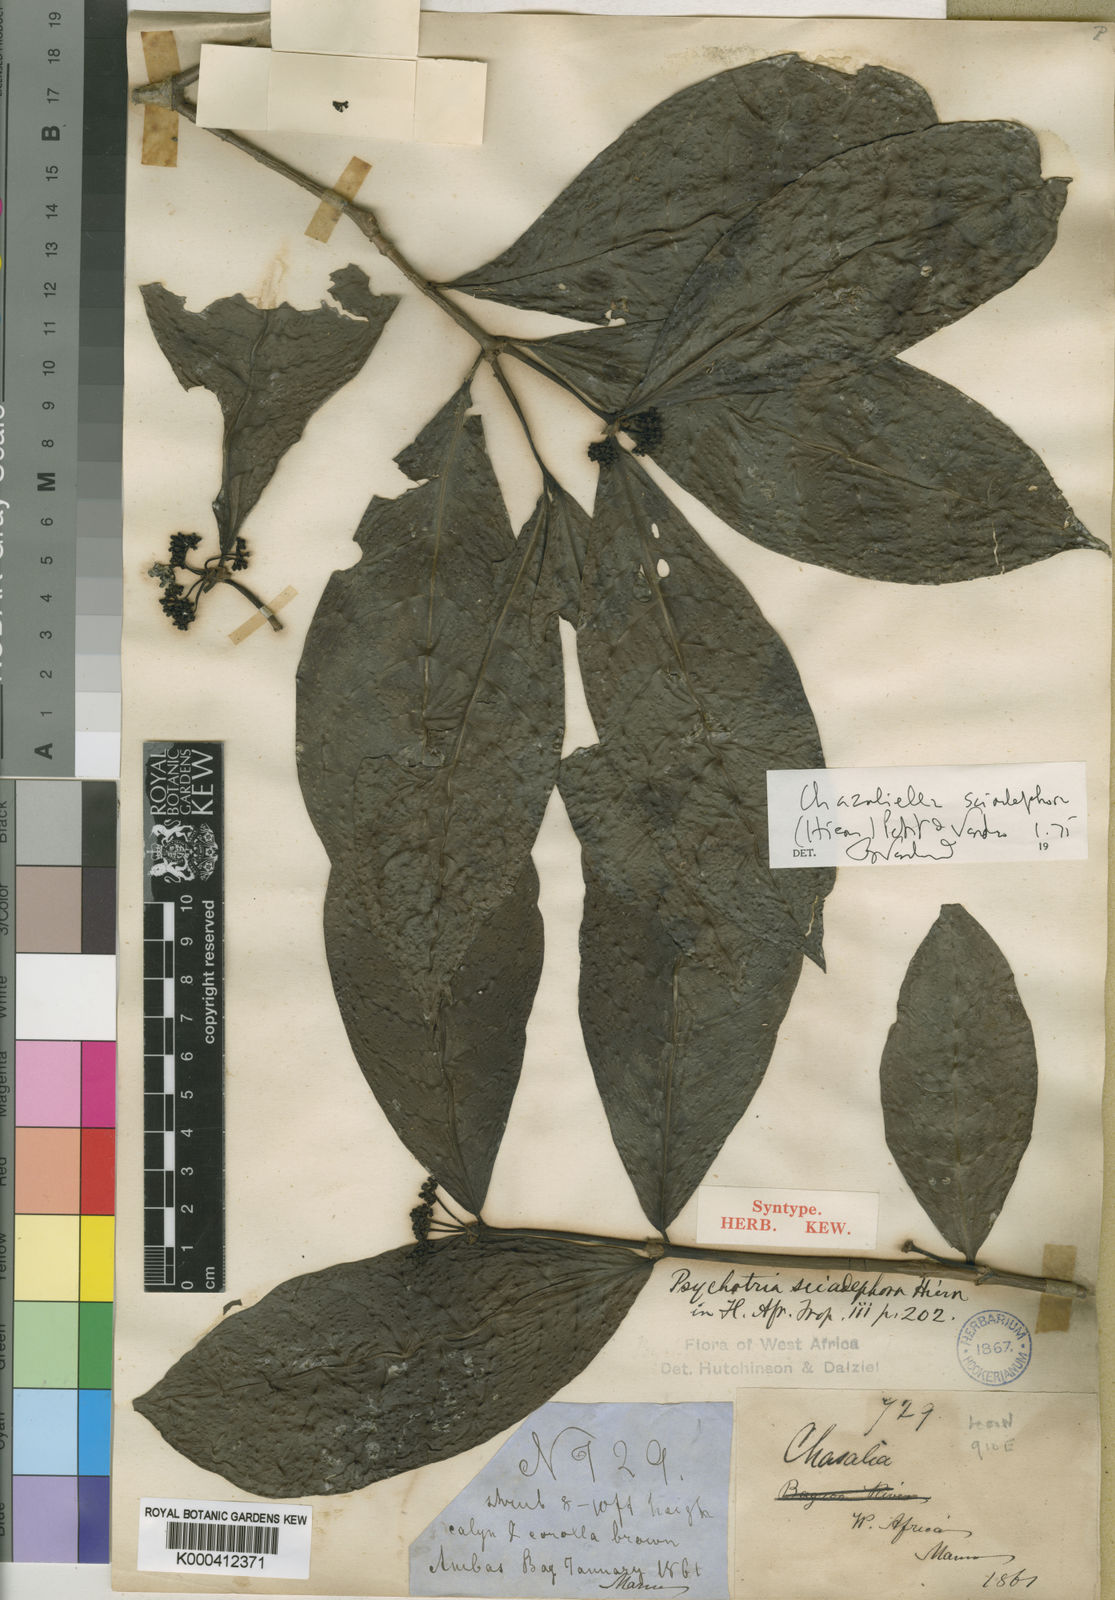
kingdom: Plantae
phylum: Tracheophyta
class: Magnoliopsida
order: Gentianales
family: Rubiaceae
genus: Eumachia
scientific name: Eumachia sciadephora
